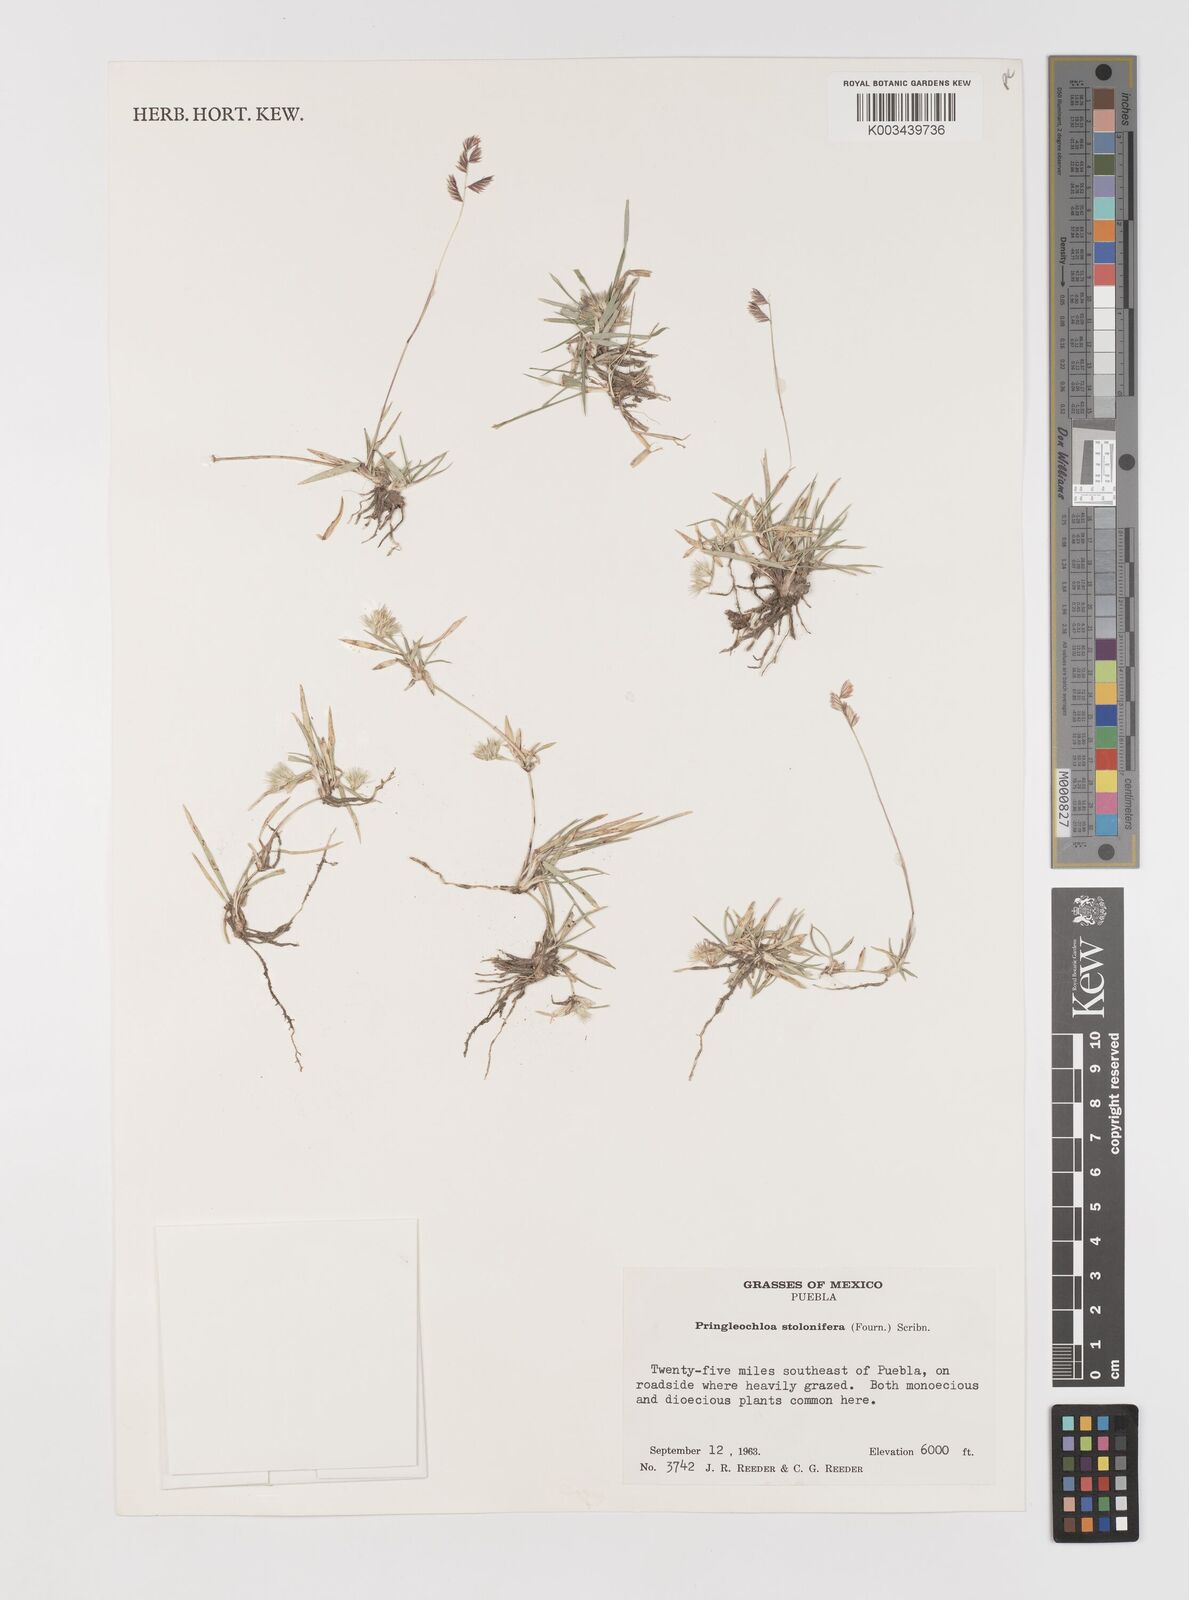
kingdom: Plantae
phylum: Tracheophyta
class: Liliopsida
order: Poales
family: Poaceae
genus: Bouteloua
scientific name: Bouteloua reederorum
